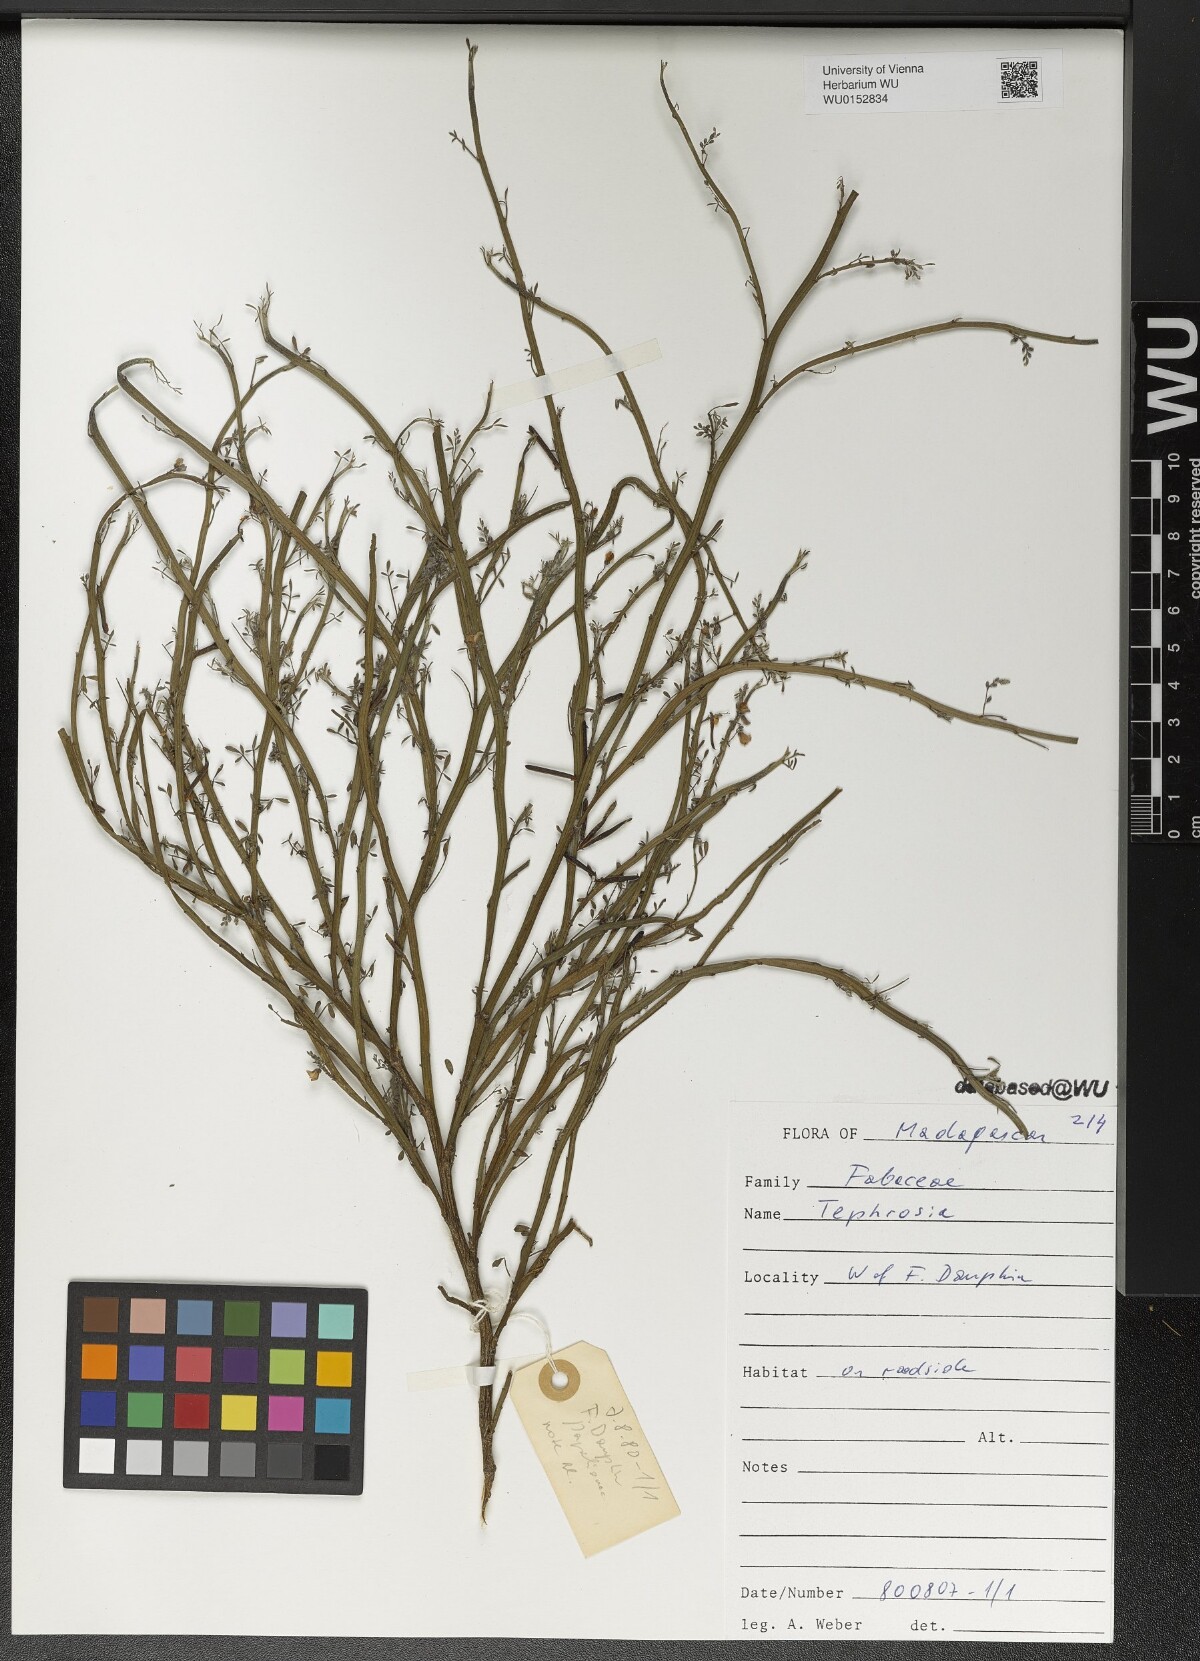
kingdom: Plantae
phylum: Tracheophyta
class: Magnoliopsida
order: Fabales
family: Fabaceae
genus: Tephrosia
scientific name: Tephrosia
